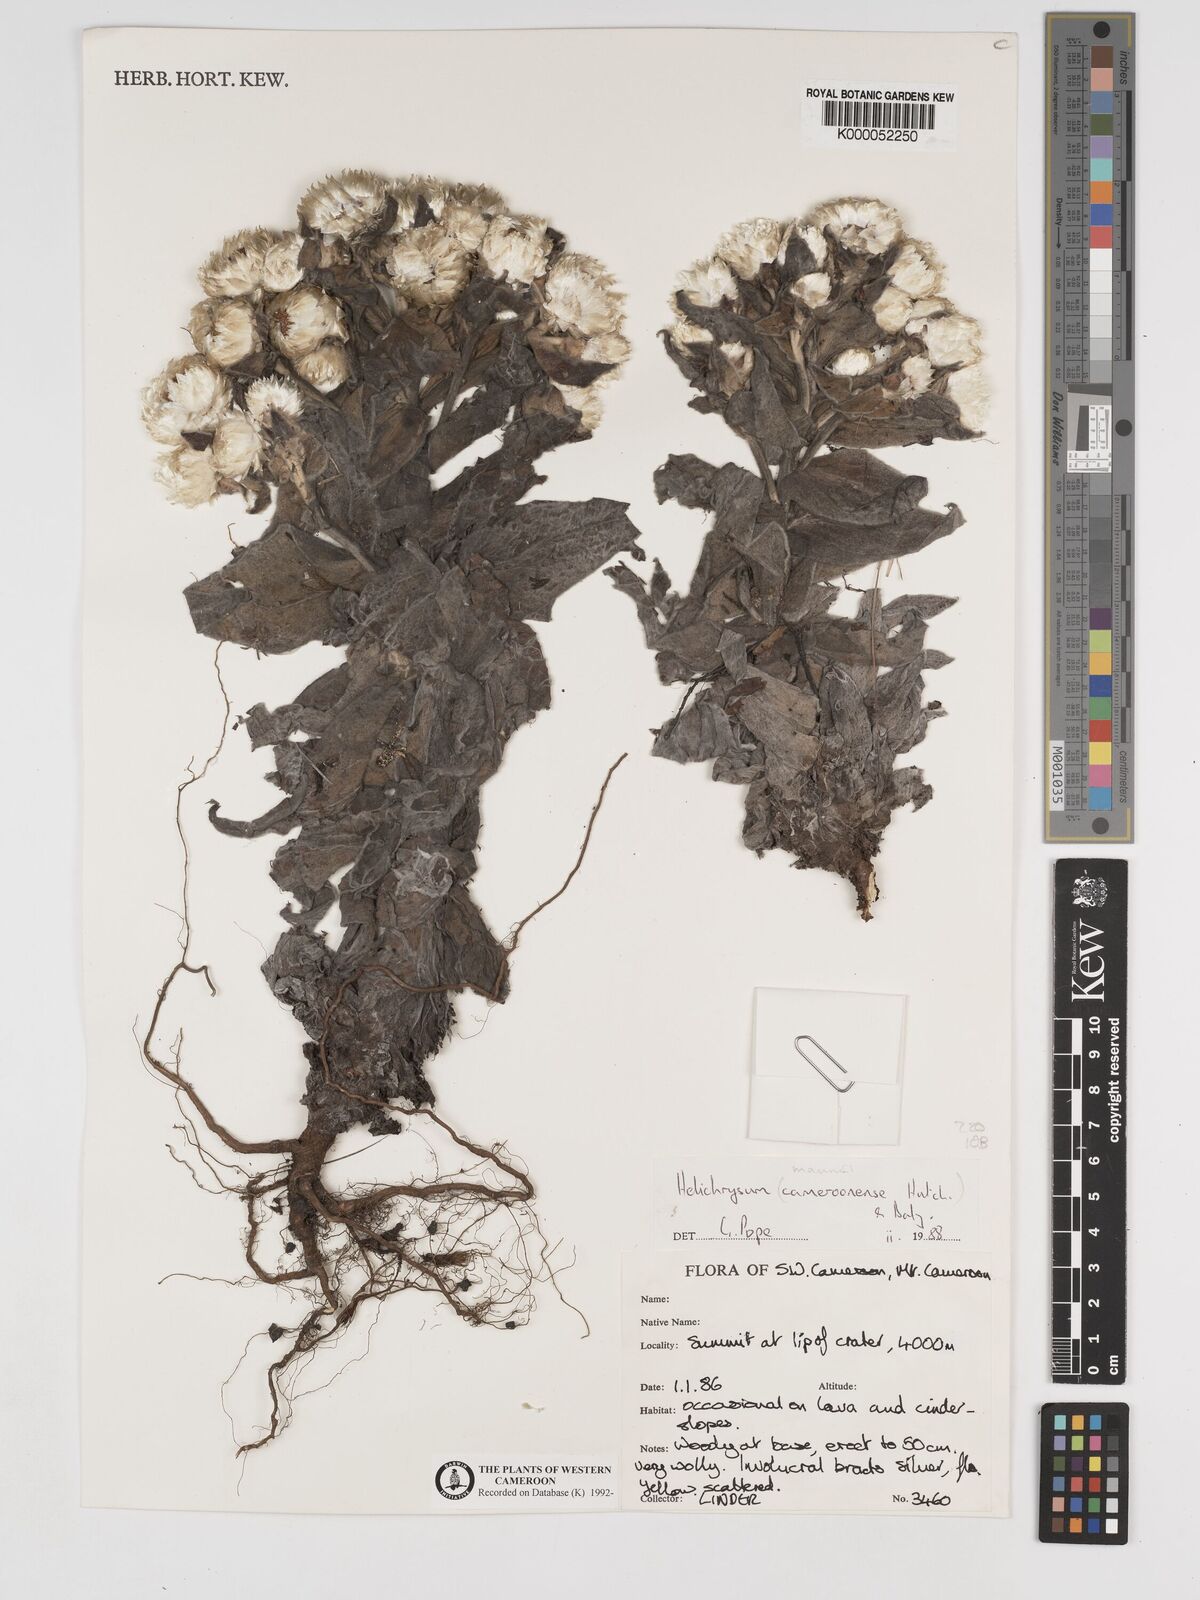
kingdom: Plantae
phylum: Tracheophyta
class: Magnoliopsida
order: Asterales
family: Asteraceae
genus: Helichrysum
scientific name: Helichrysum mannii
